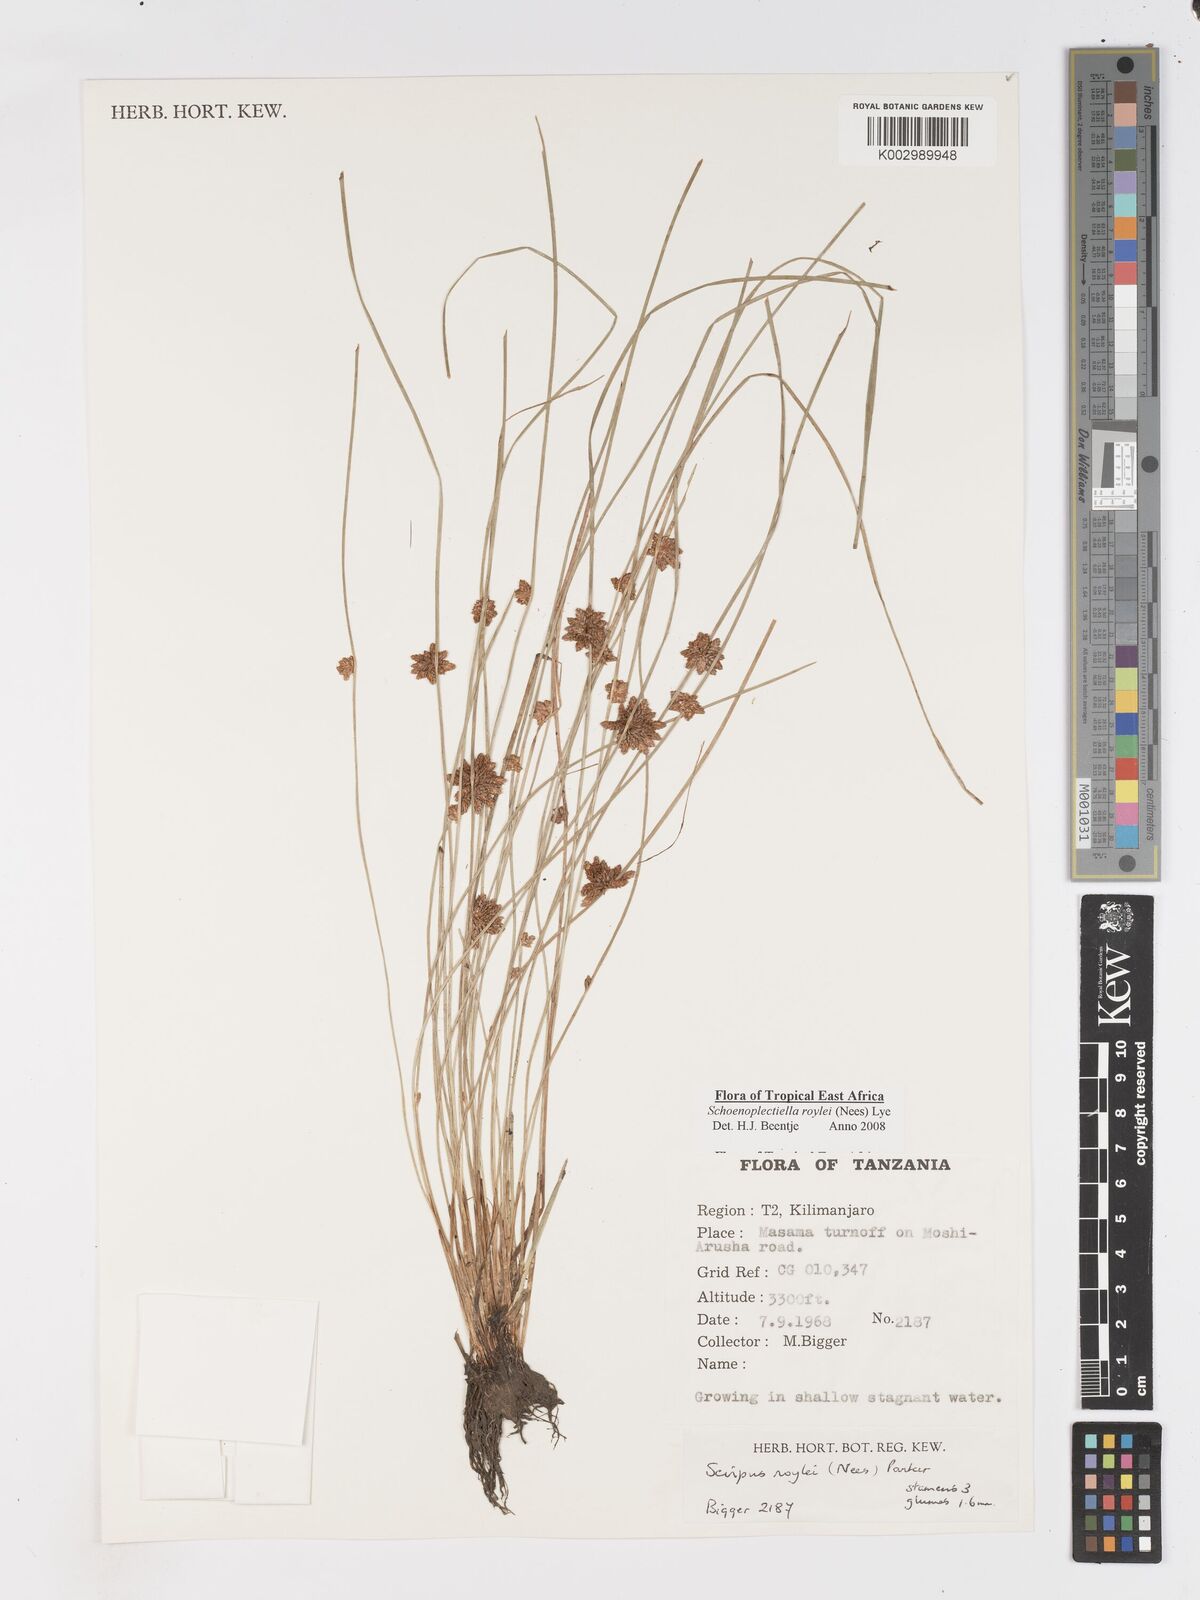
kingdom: Plantae
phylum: Tracheophyta
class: Liliopsida
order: Poales
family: Cyperaceae
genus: Schoenoplectiella
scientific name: Schoenoplectiella roylei
